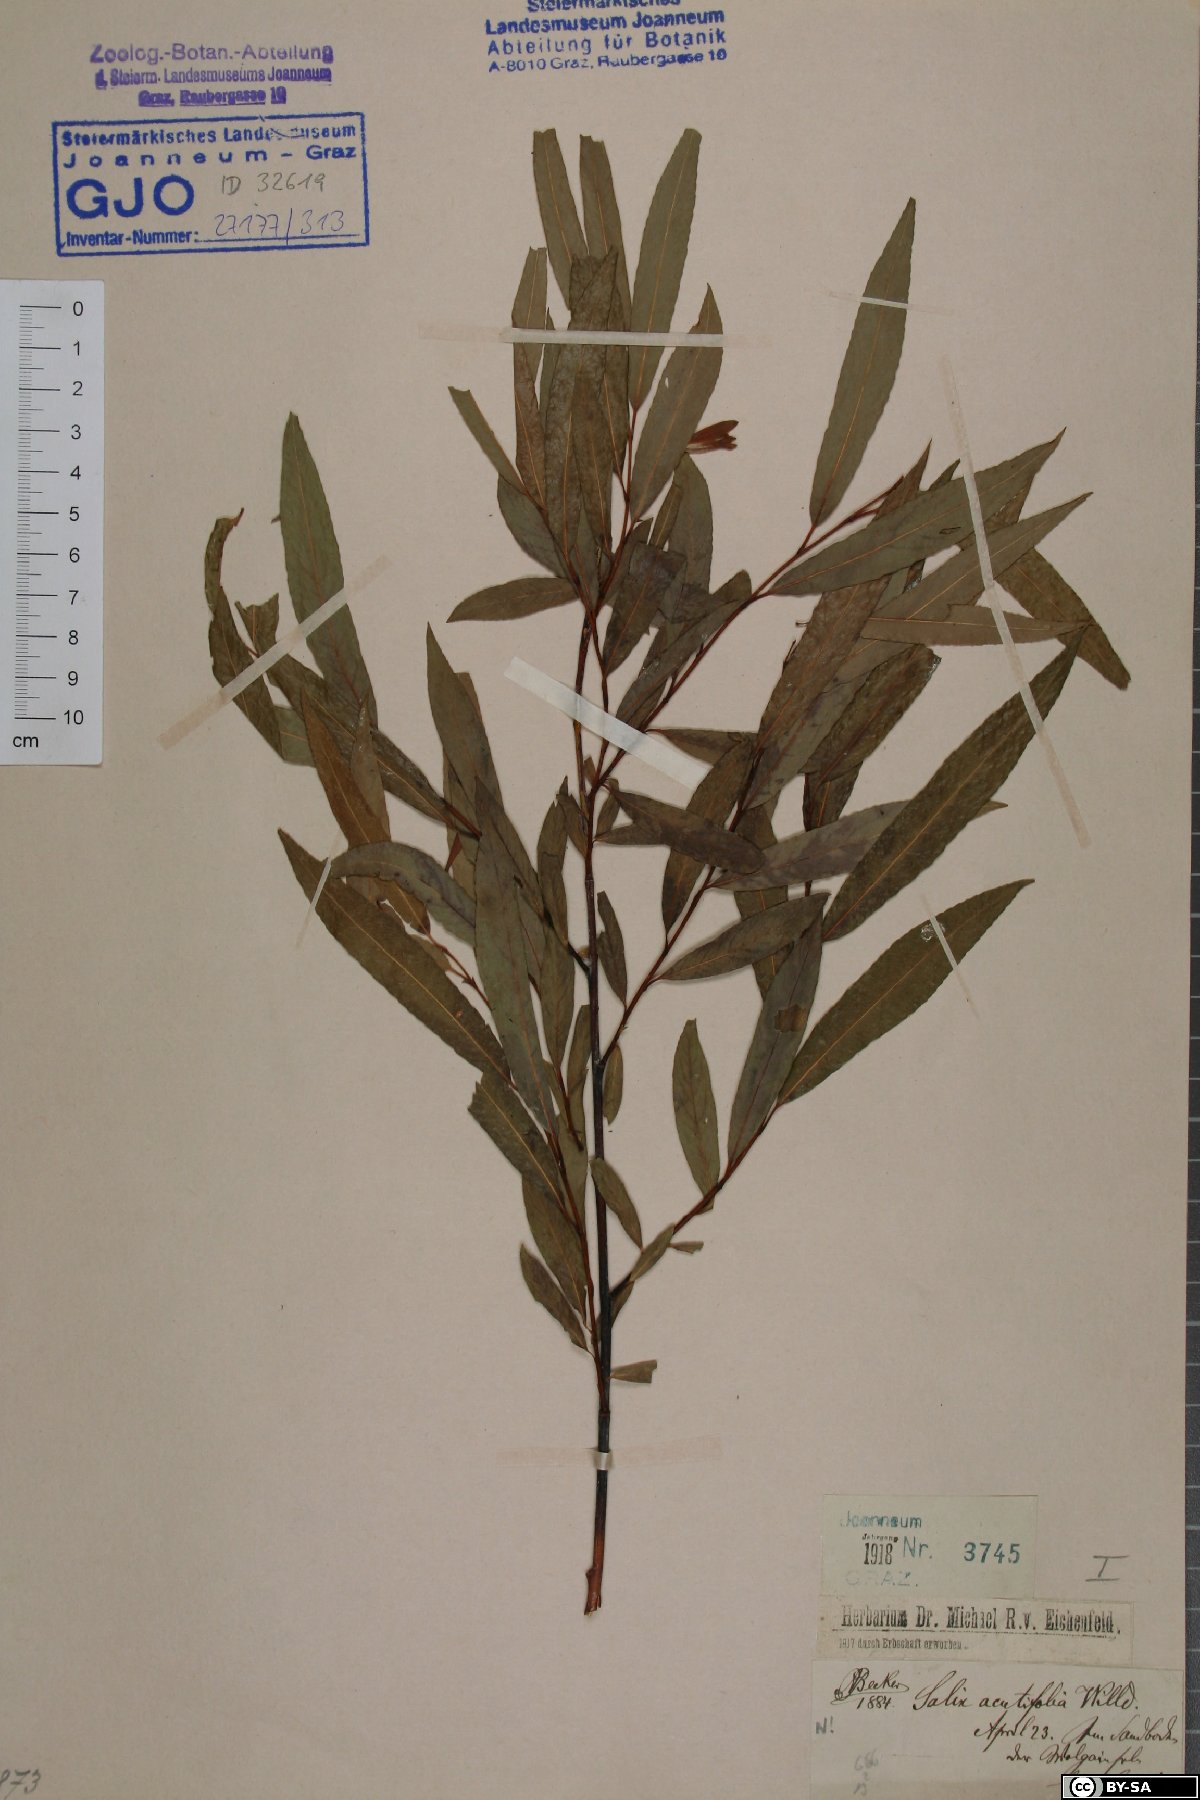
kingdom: Plantae
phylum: Tracheophyta
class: Magnoliopsida
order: Malpighiales
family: Salicaceae
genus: Salix
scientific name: Salix acutifolia
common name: Siberian violet-willow
